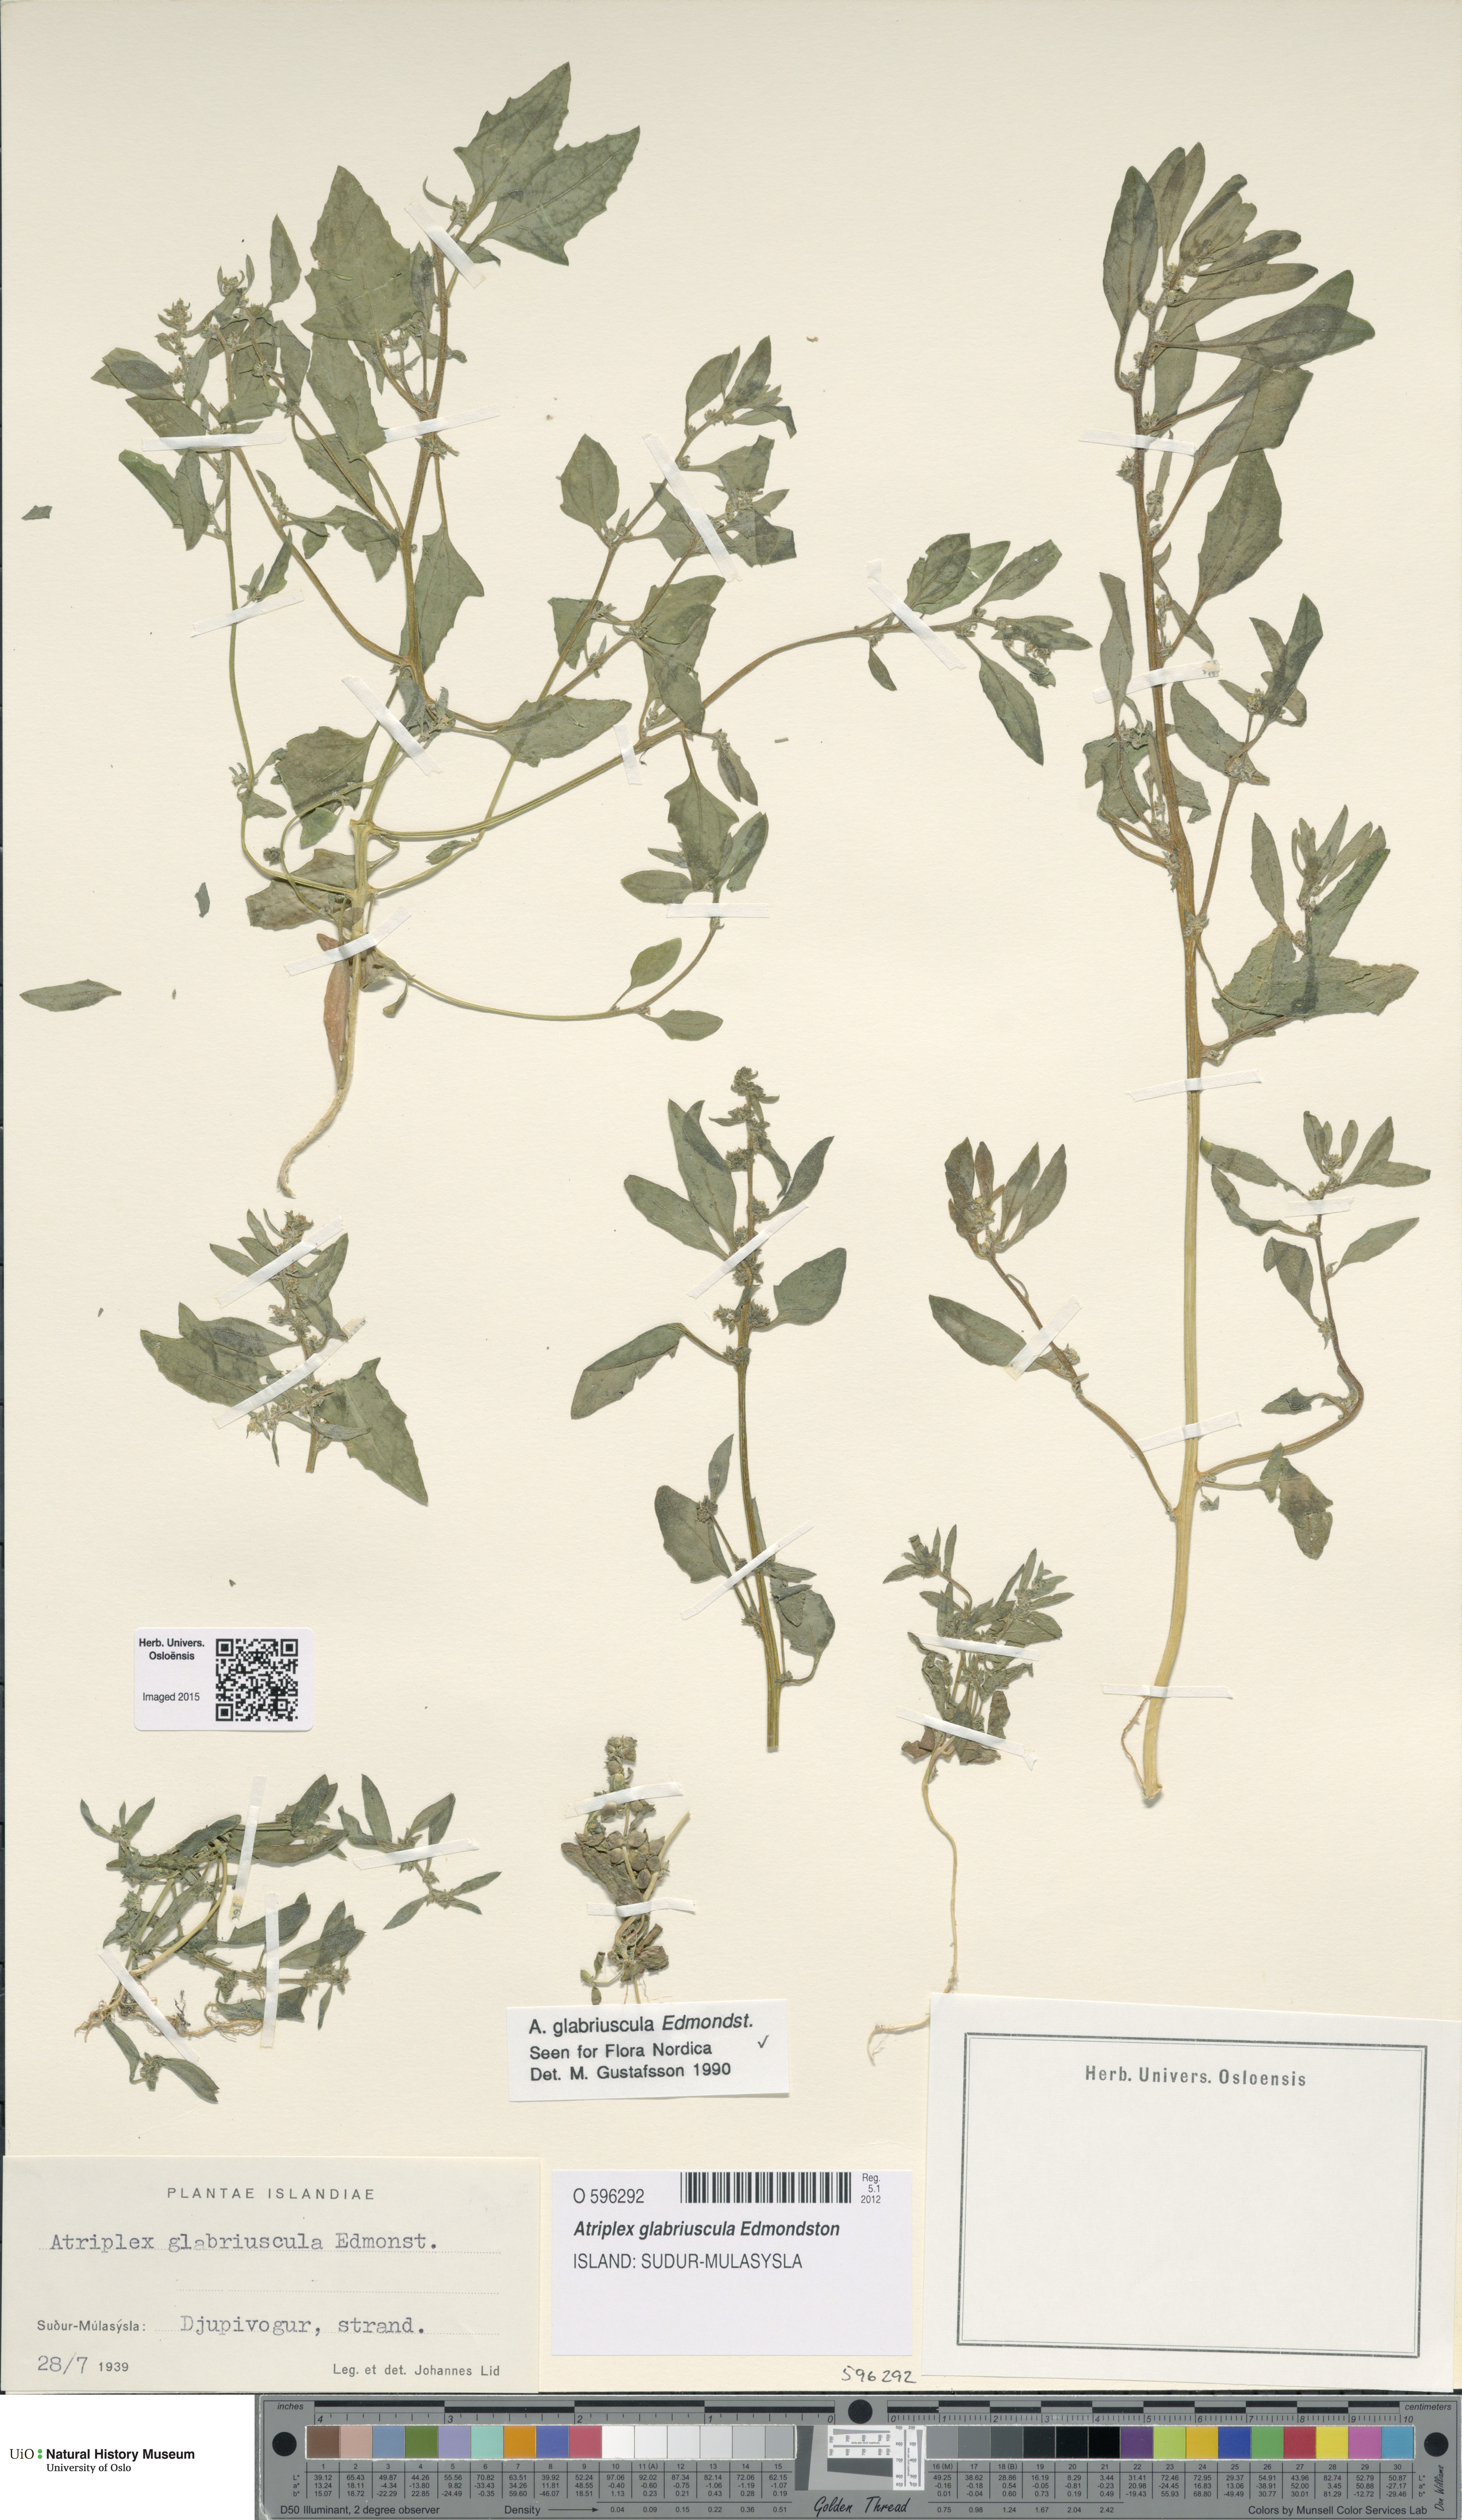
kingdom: Plantae
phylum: Tracheophyta
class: Magnoliopsida
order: Caryophyllales
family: Amaranthaceae
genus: Atriplex
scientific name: Atriplex glabriuscula
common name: Babington's orache
